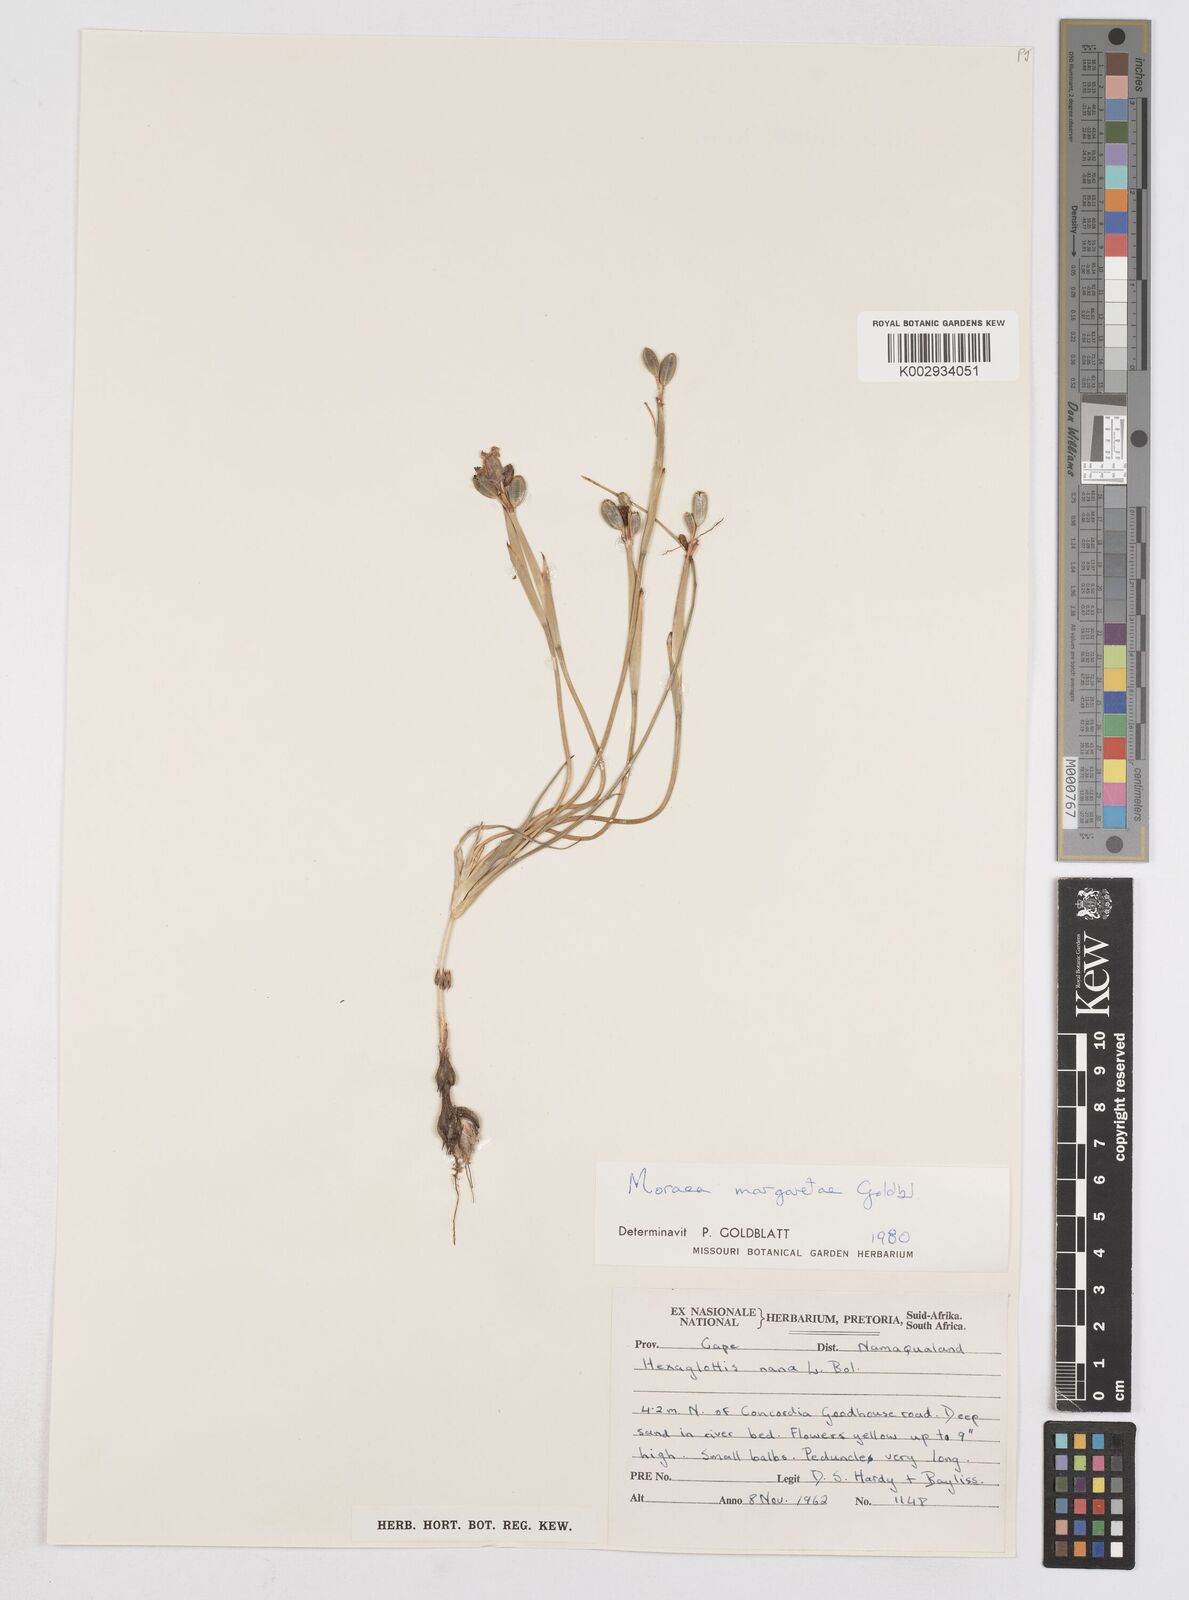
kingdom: Plantae
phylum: Tracheophyta
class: Liliopsida
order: Asparagales
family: Iridaceae
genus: Moraea
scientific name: Moraea margaretae
